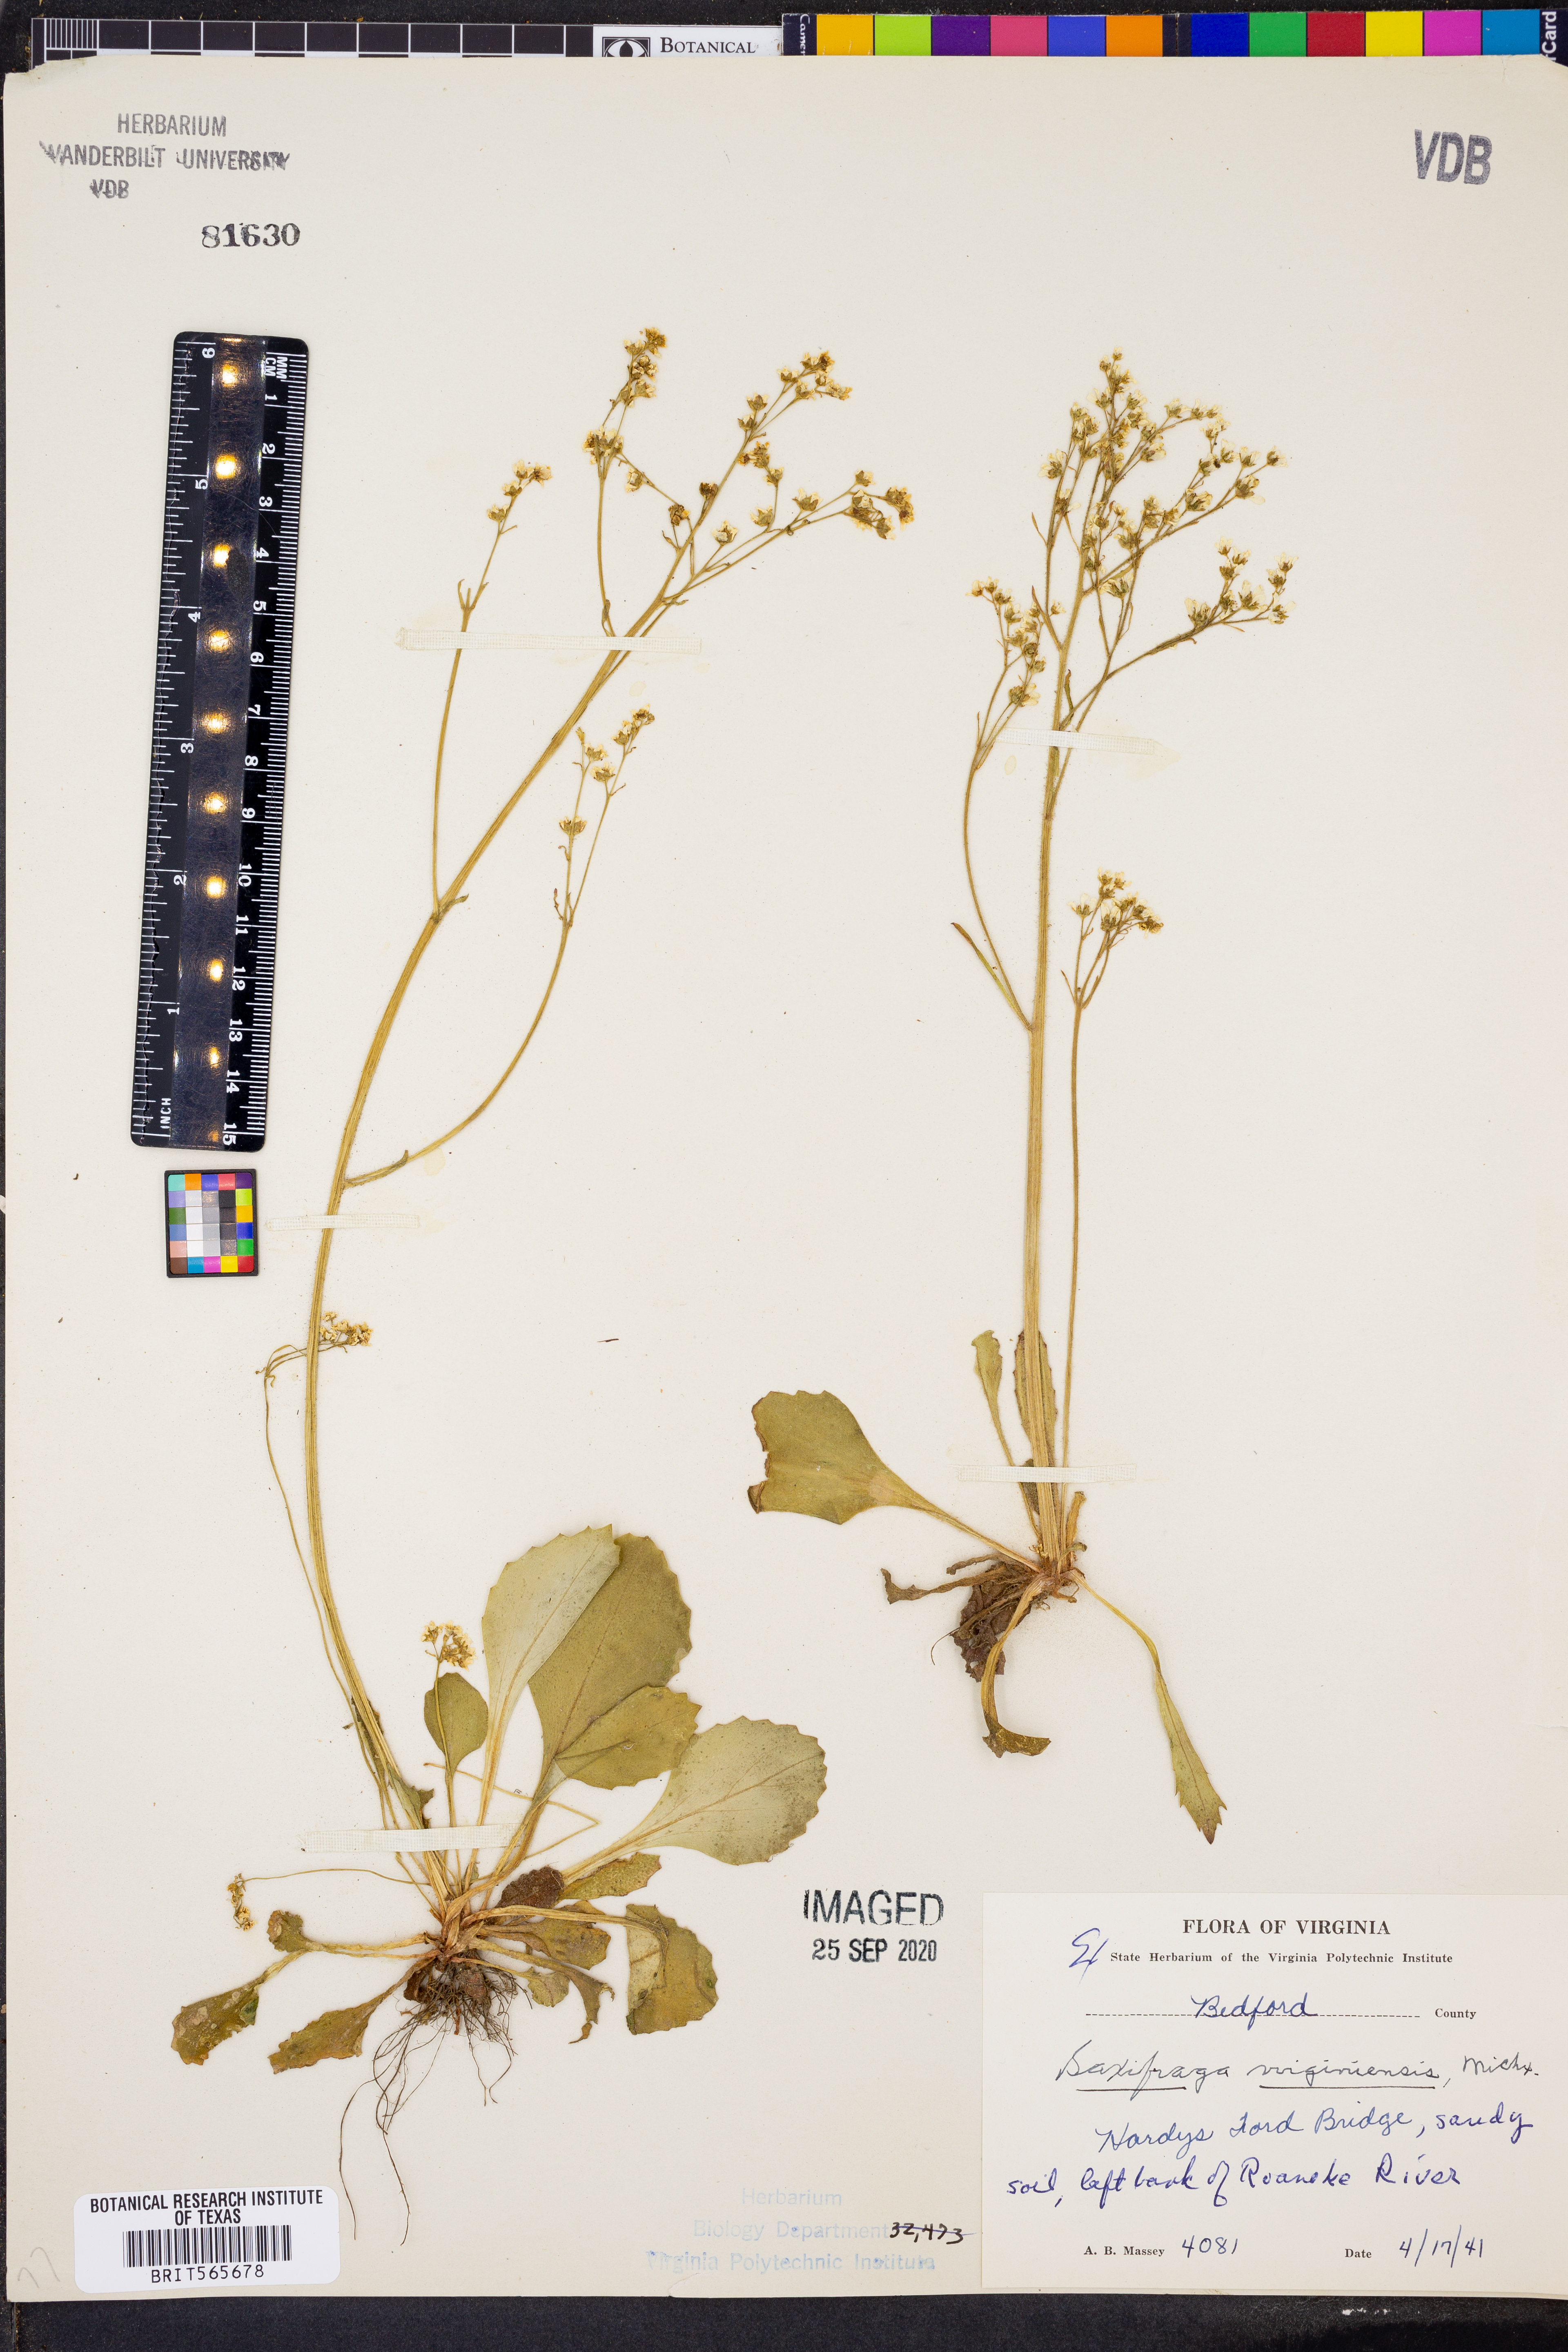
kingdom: Plantae
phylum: Tracheophyta
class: Magnoliopsida
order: Saxifragales
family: Saxifragaceae
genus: Micranthes
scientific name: Micranthes virginiensis
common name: Early saxifrage
